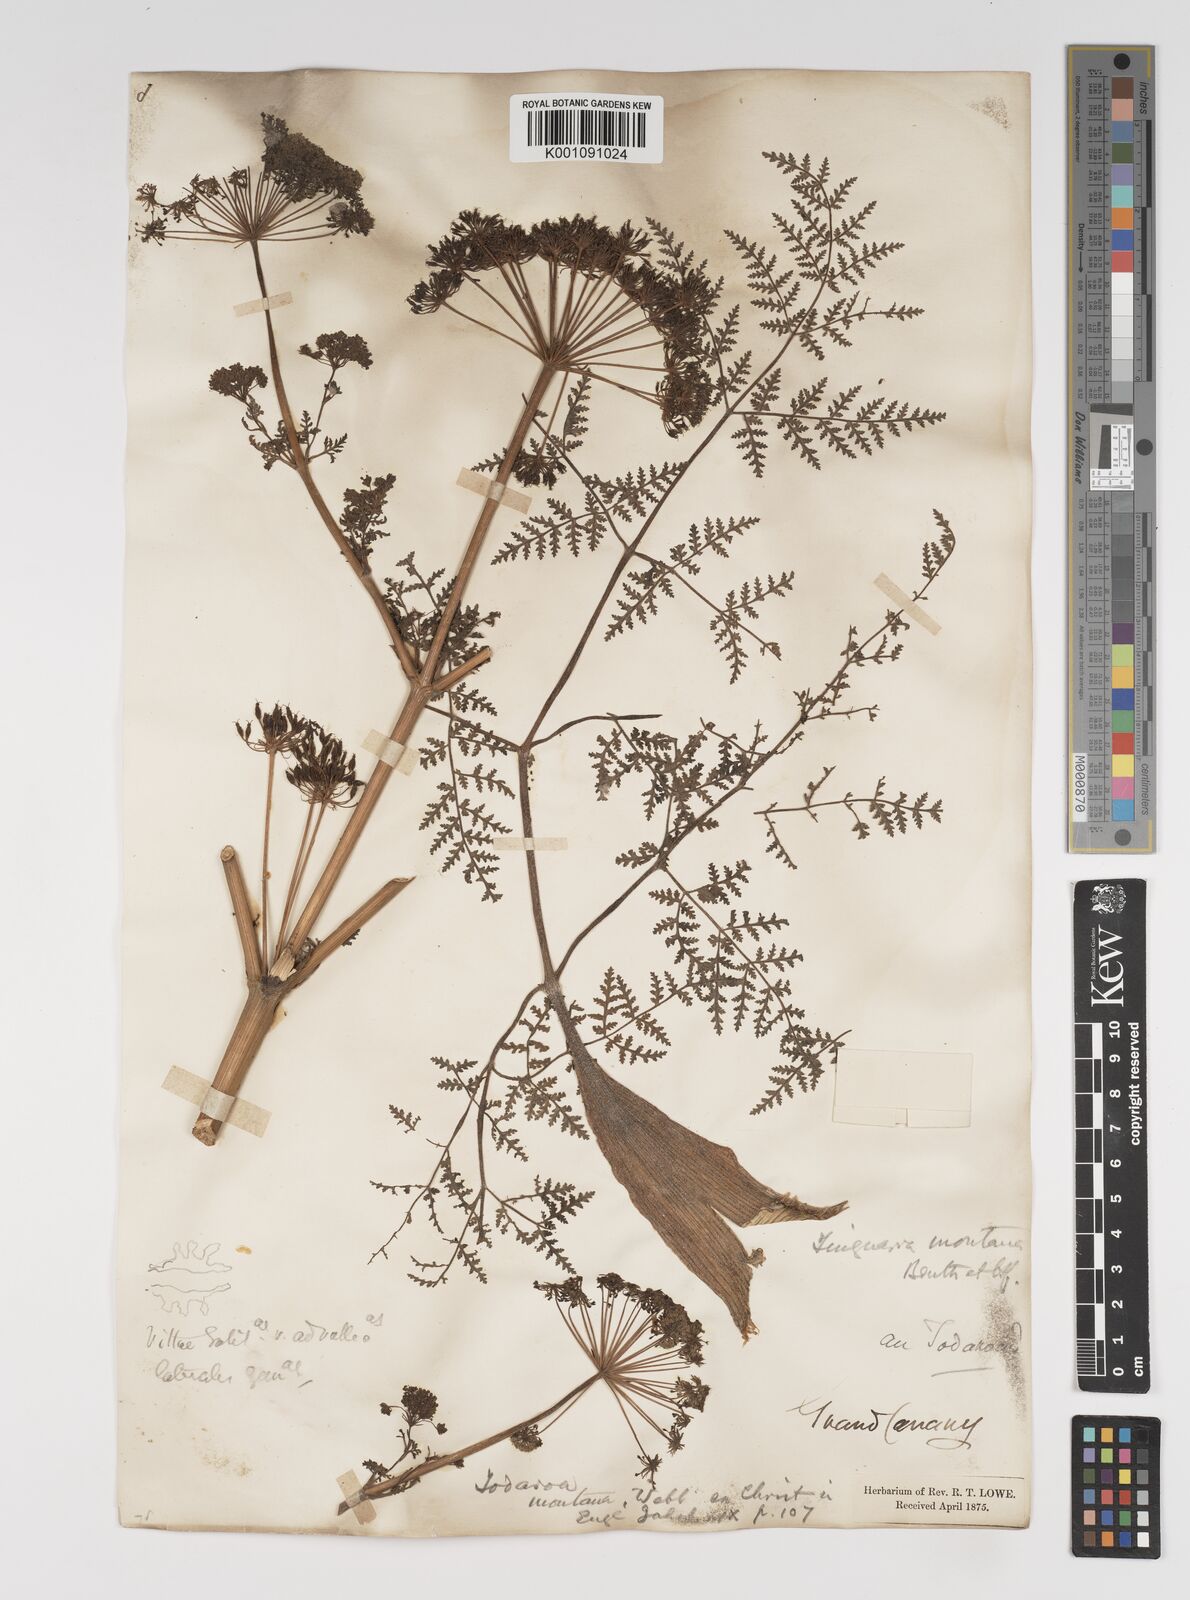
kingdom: Plantae
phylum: Tracheophyta
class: Magnoliopsida
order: Apiales
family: Apiaceae
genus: Athamanta
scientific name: Athamanta montana
